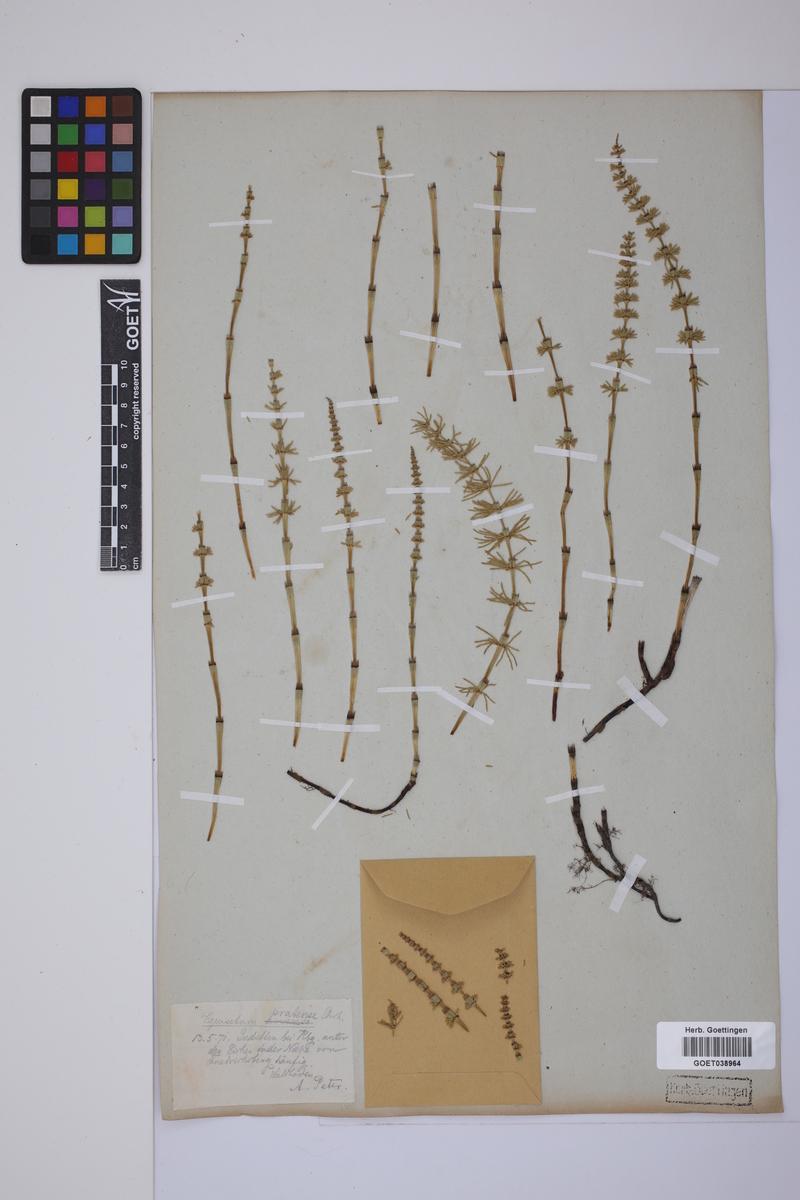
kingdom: Plantae
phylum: Tracheophyta
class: Polypodiopsida
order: Equisetales
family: Equisetaceae
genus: Equisetum
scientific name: Equisetum pratense
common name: Meadow horsetail
